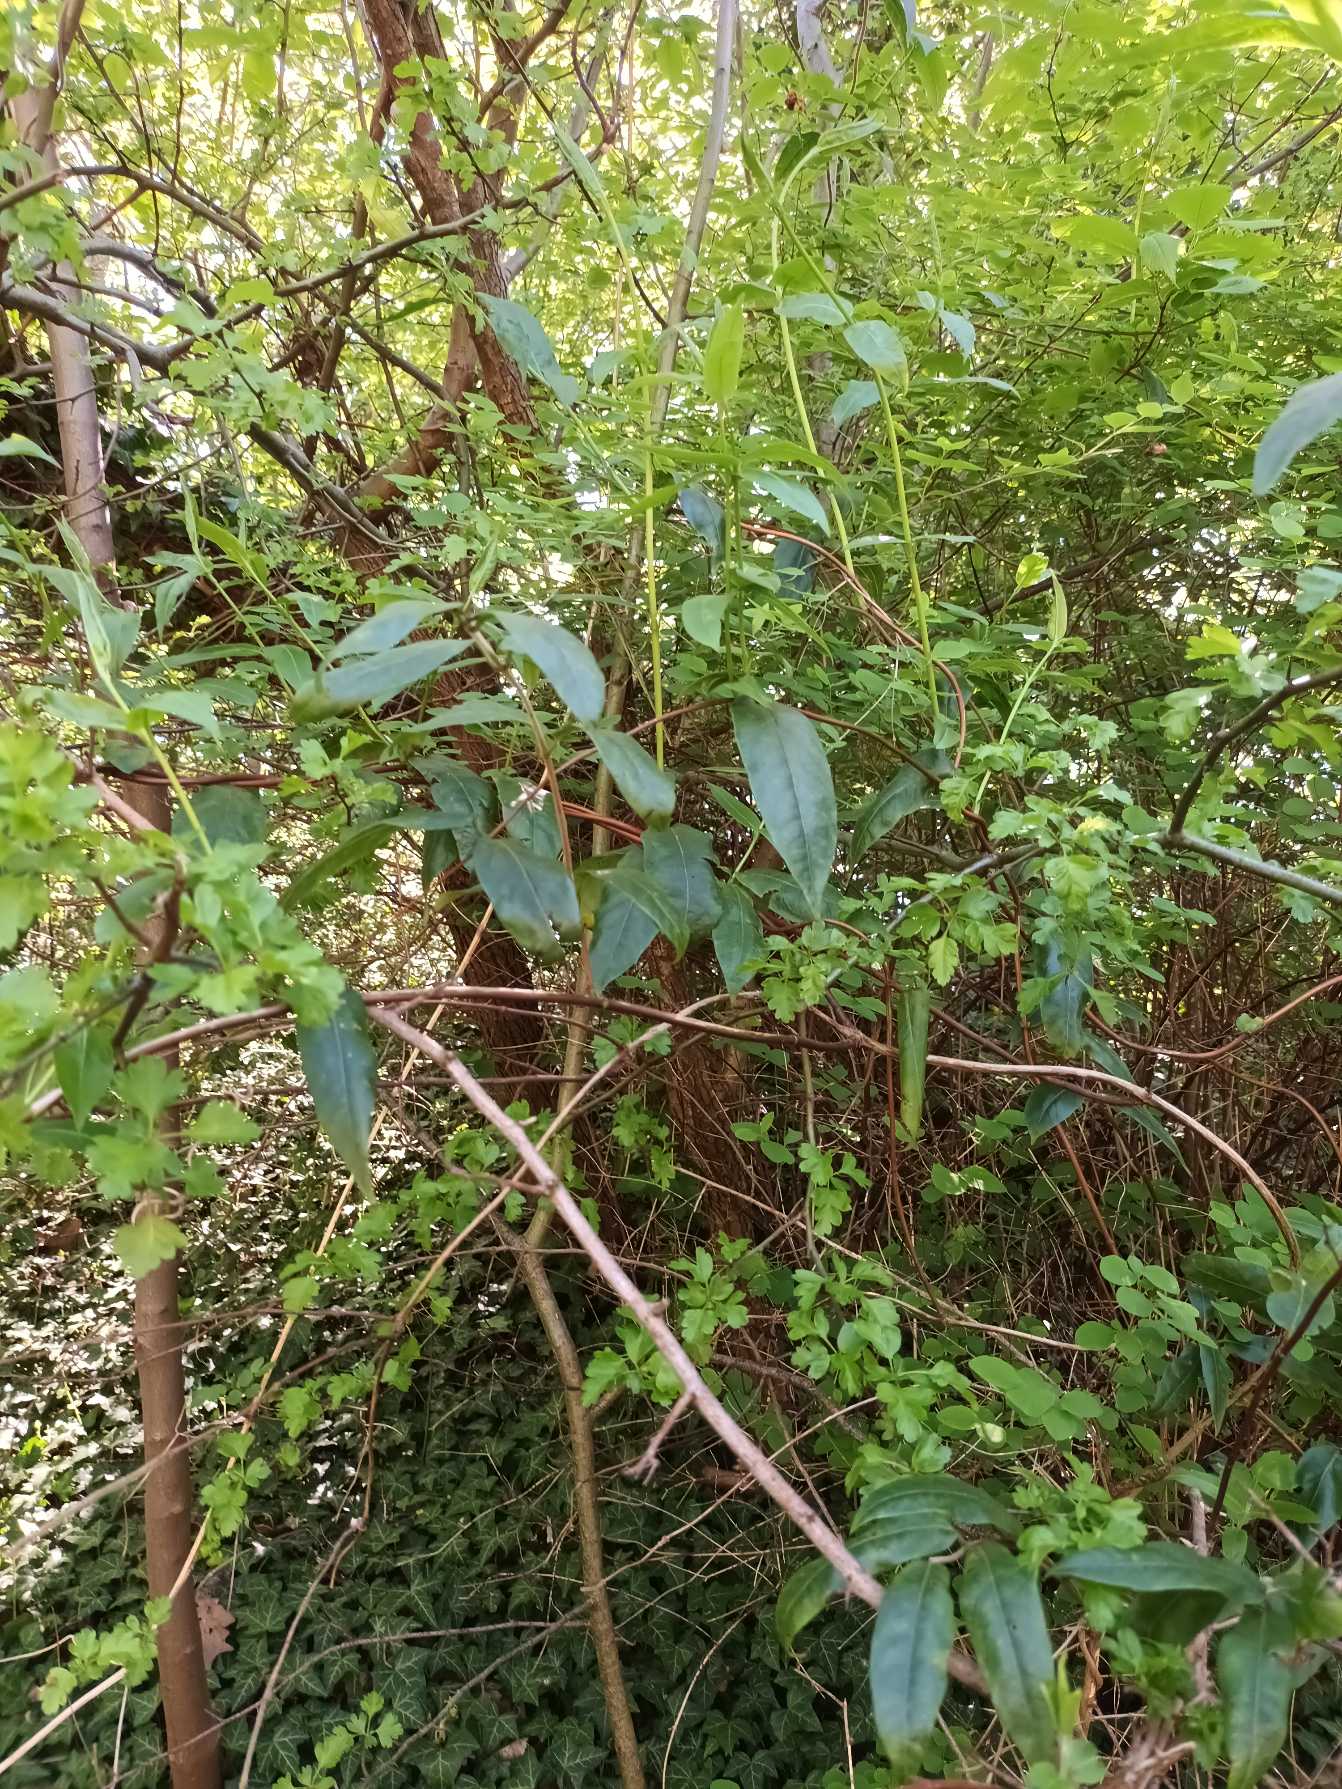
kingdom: Plantae
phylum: Tracheophyta
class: Magnoliopsida
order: Dipsacales
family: Caprifoliaceae
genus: Lonicera
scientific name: Lonicera acuminata
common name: Henrys gedeblad
